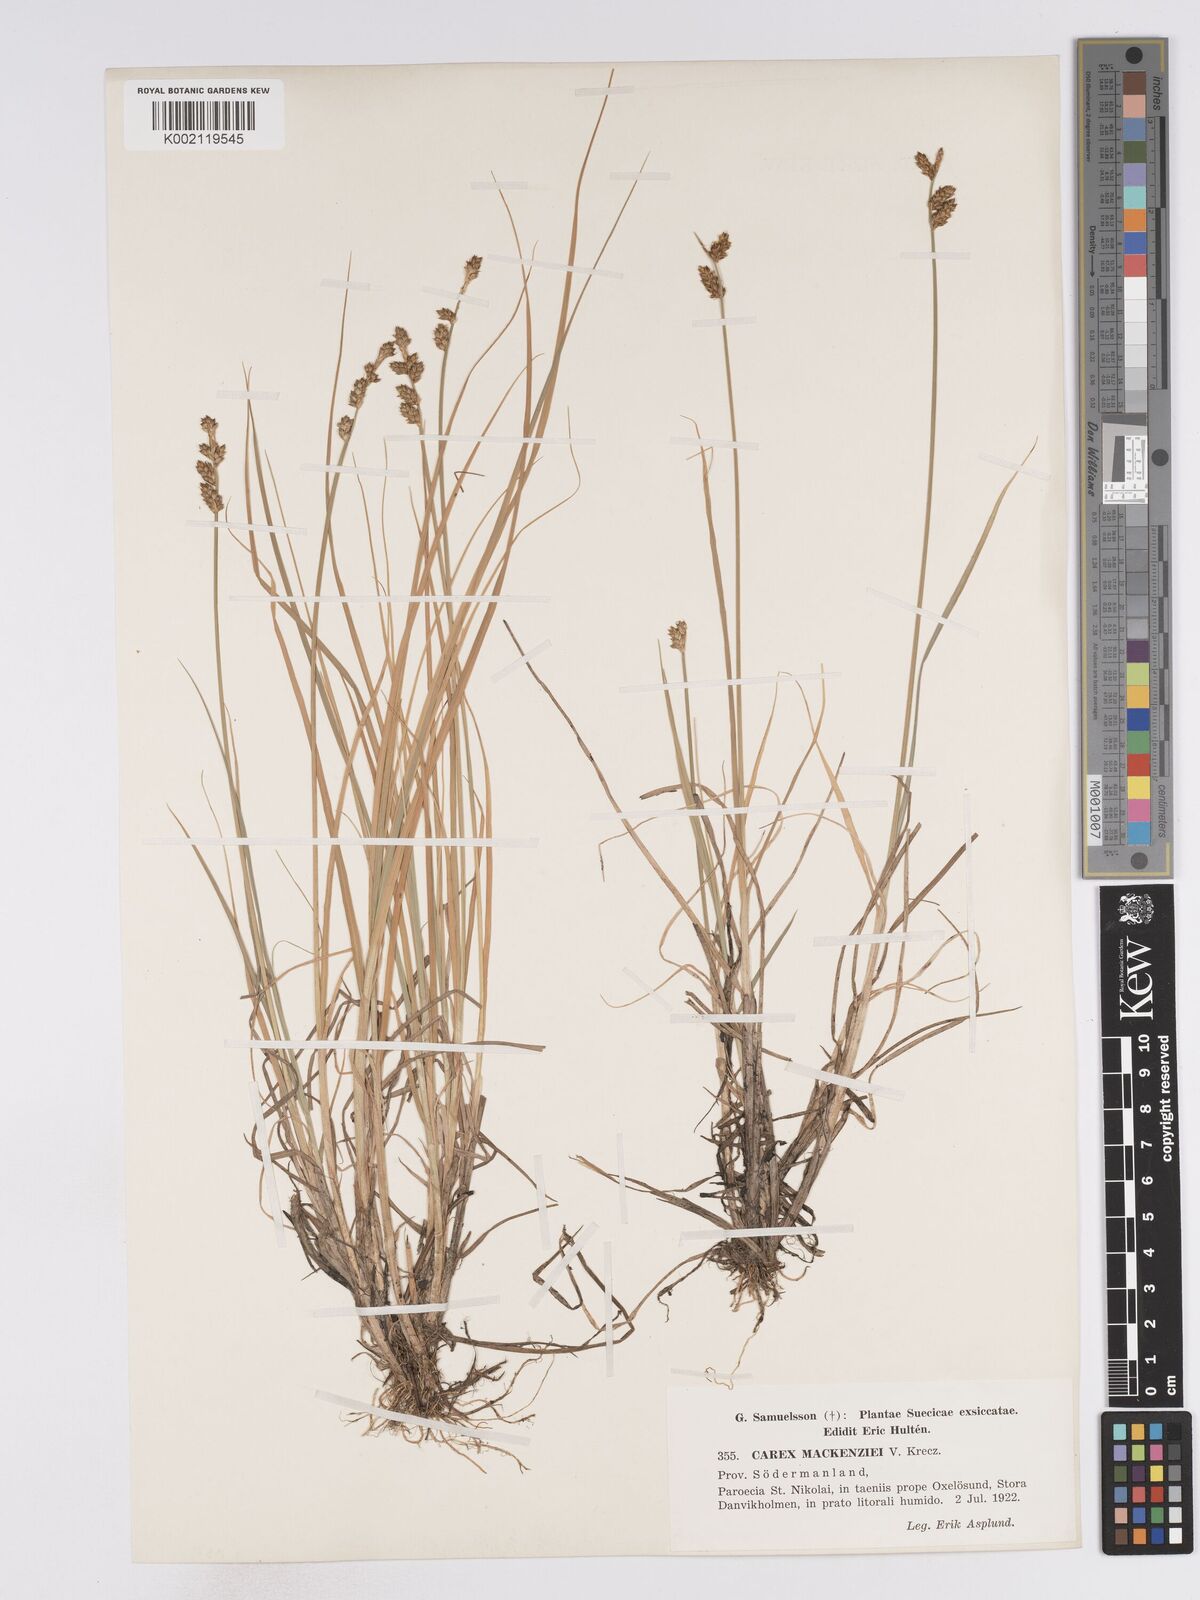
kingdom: Plantae
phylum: Tracheophyta
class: Liliopsida
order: Poales
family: Cyperaceae
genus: Carex
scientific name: Carex mackenziei
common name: Mackenzie's sedge
